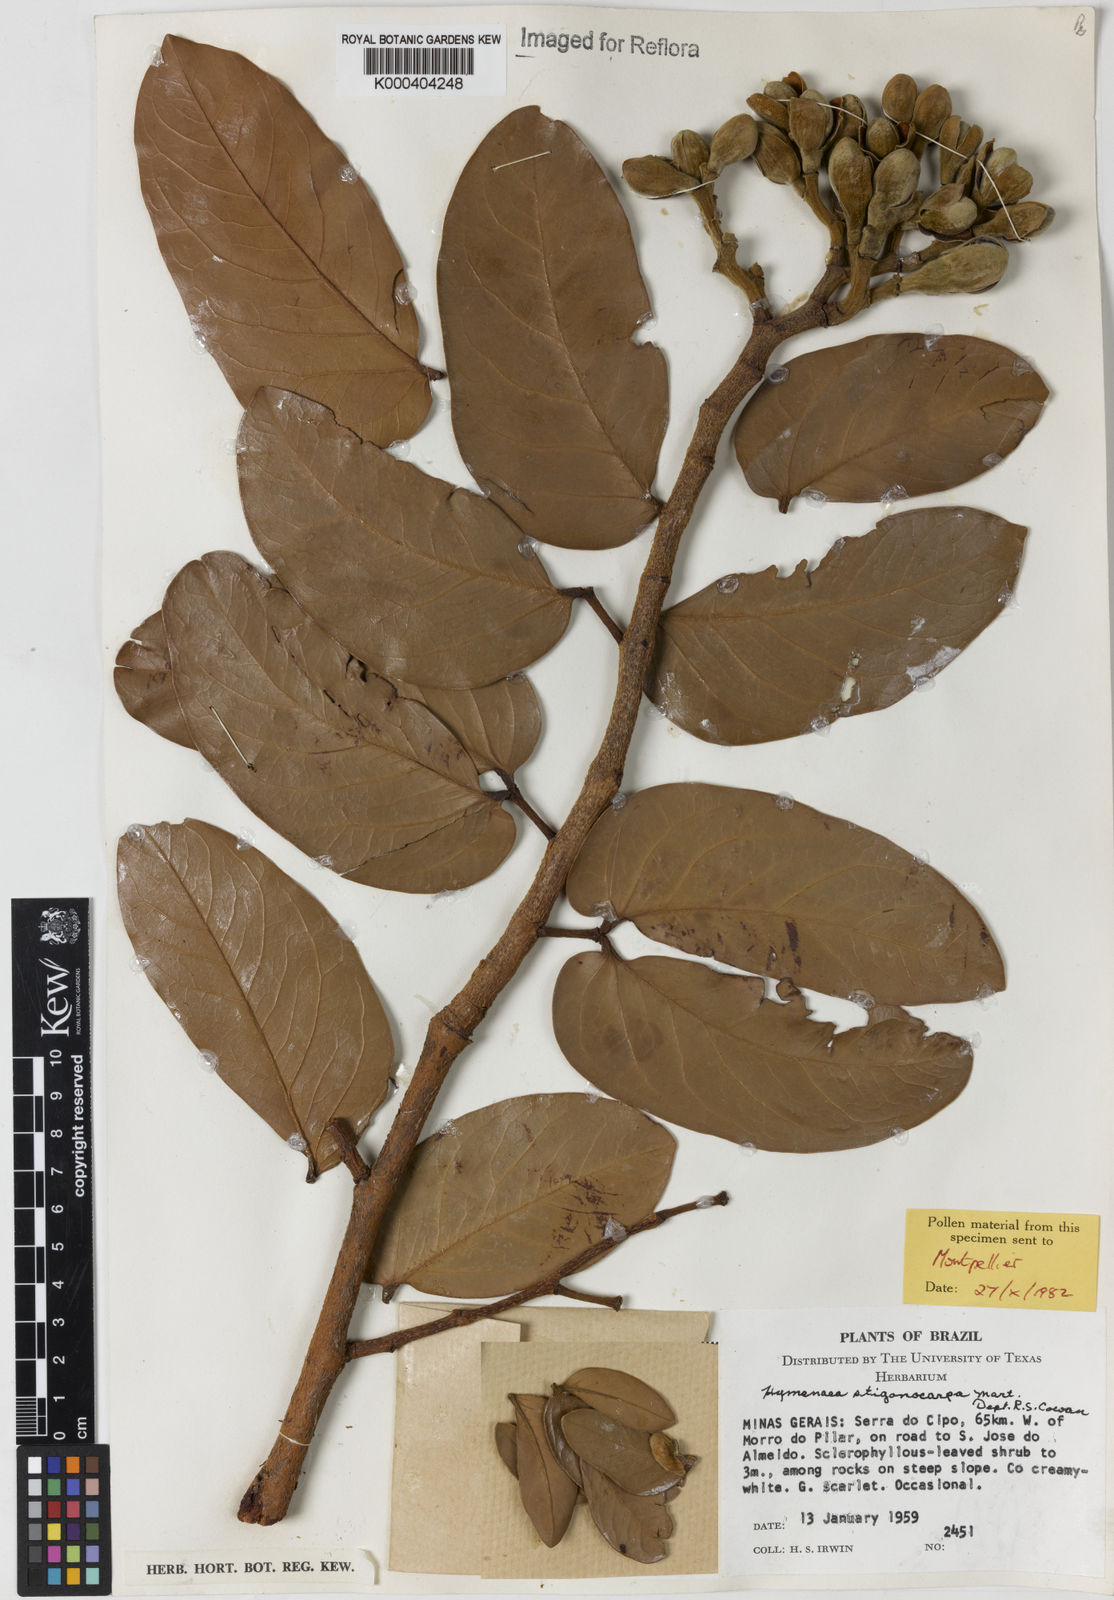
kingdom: Plantae
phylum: Tracheophyta
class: Magnoliopsida
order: Fabales
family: Fabaceae
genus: Hymenaea
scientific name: Hymenaea stigonocarpa
